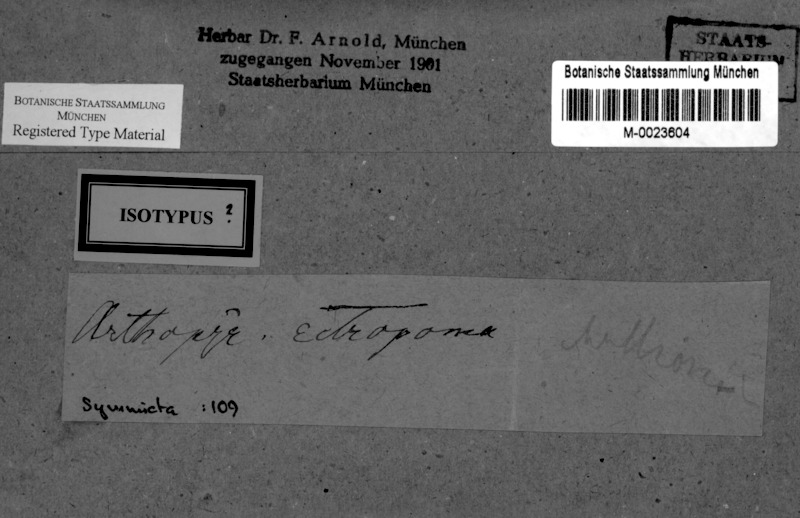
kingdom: Fungi
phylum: Ascomycota
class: Arthoniomycetes
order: Arthoniales
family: Arthoniaceae
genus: Naevia
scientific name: Naevia dispersa
